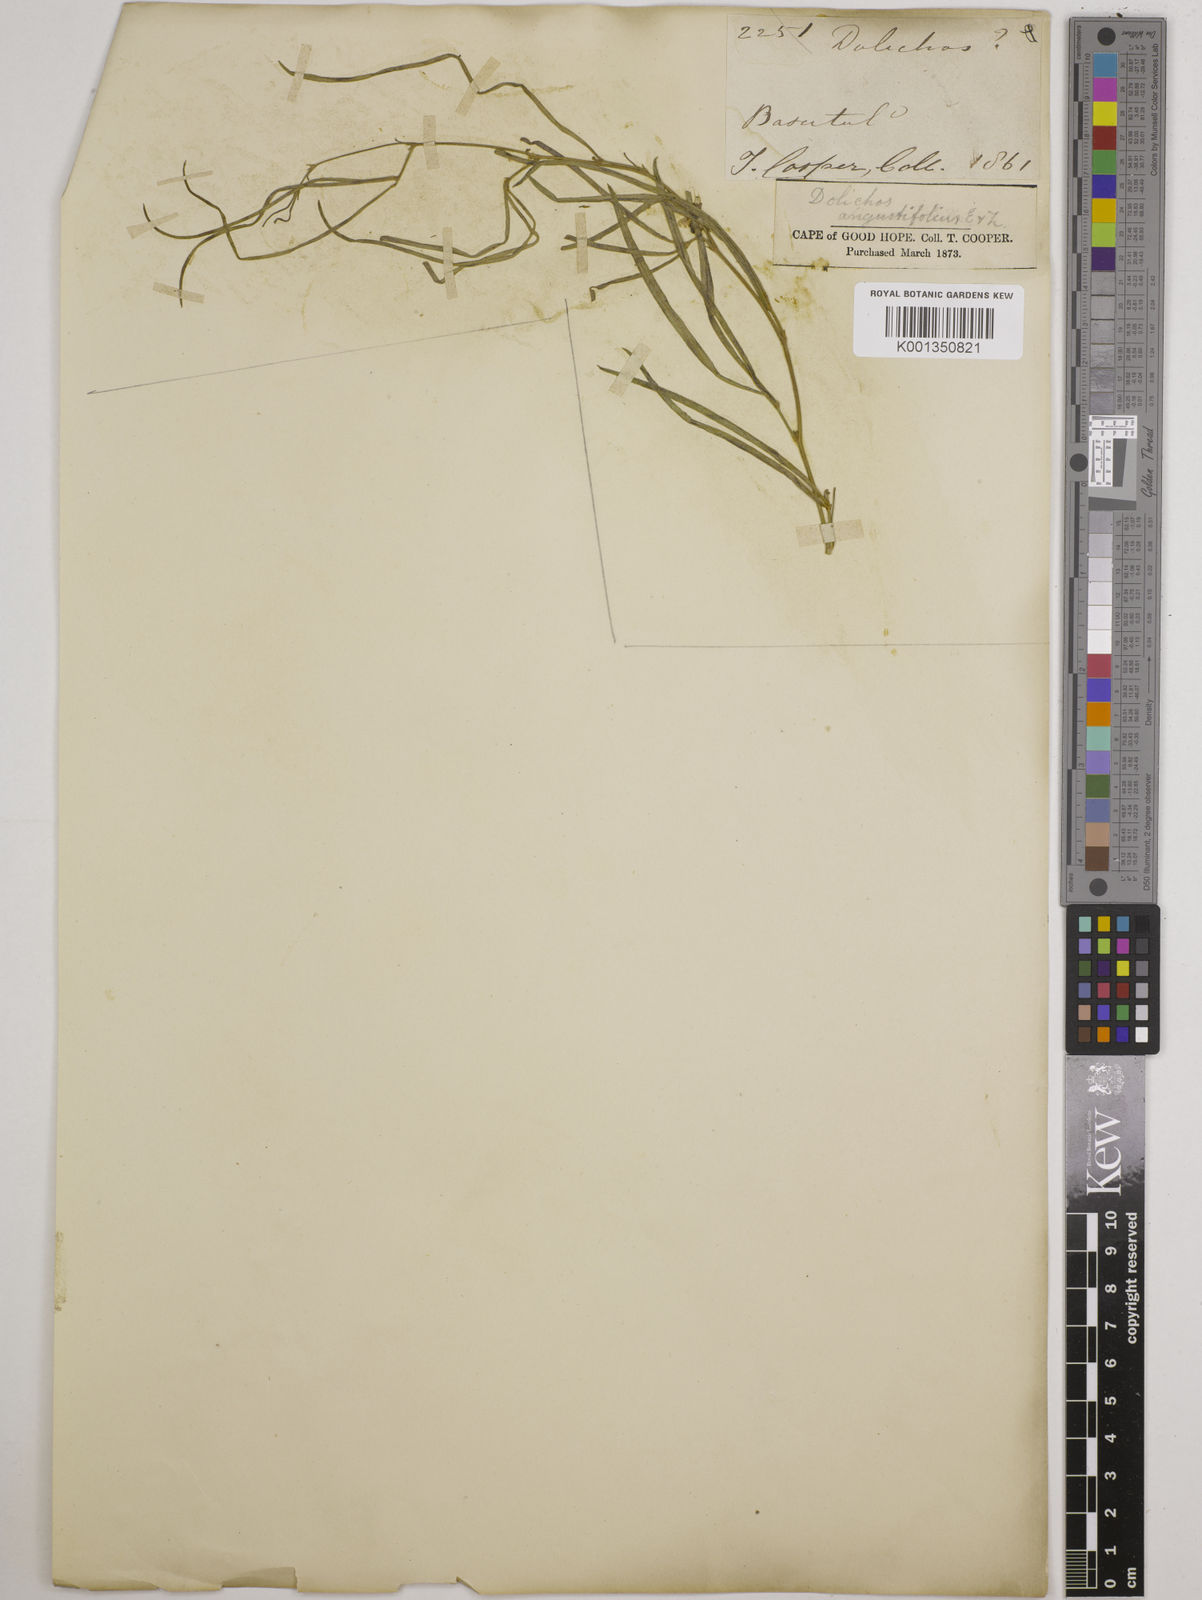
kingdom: Plantae
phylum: Tracheophyta
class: Magnoliopsida
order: Fabales
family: Fabaceae
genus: Dolichos
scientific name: Dolichos
